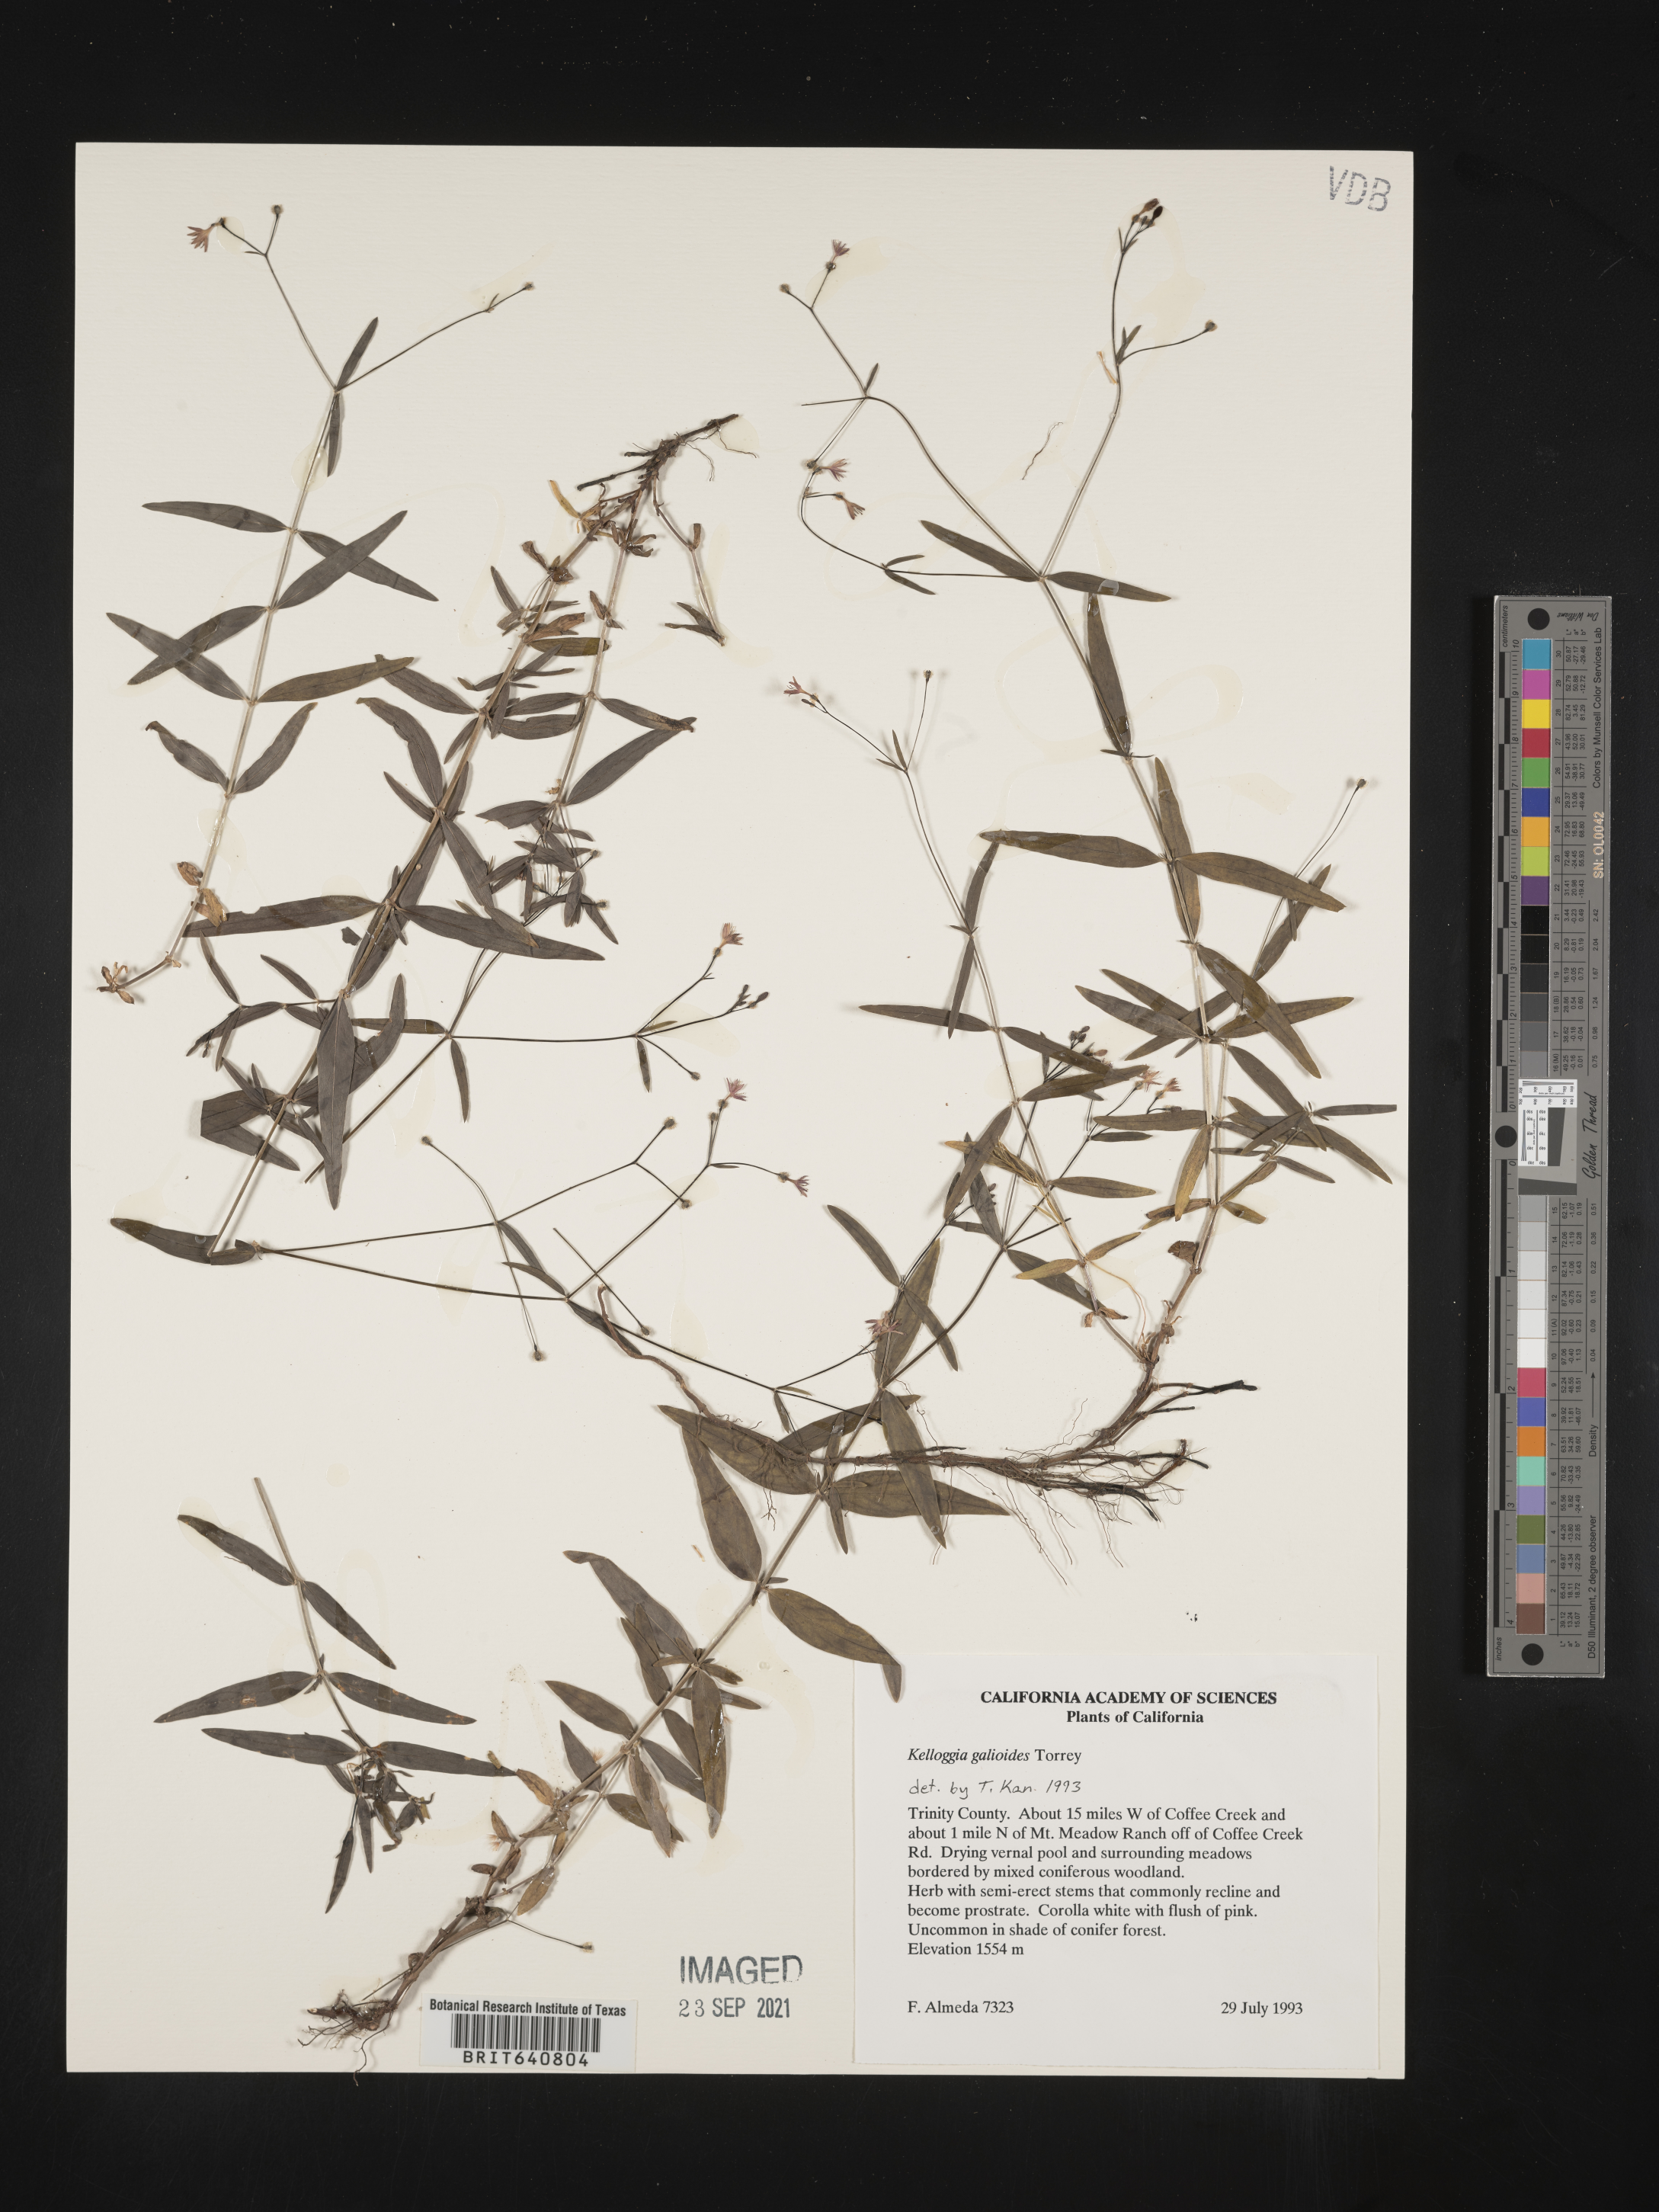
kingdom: Plantae
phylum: Tracheophyta
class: Magnoliopsida
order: Gentianales
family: Rubiaceae
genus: Kelloggia
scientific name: Kelloggia galioides
